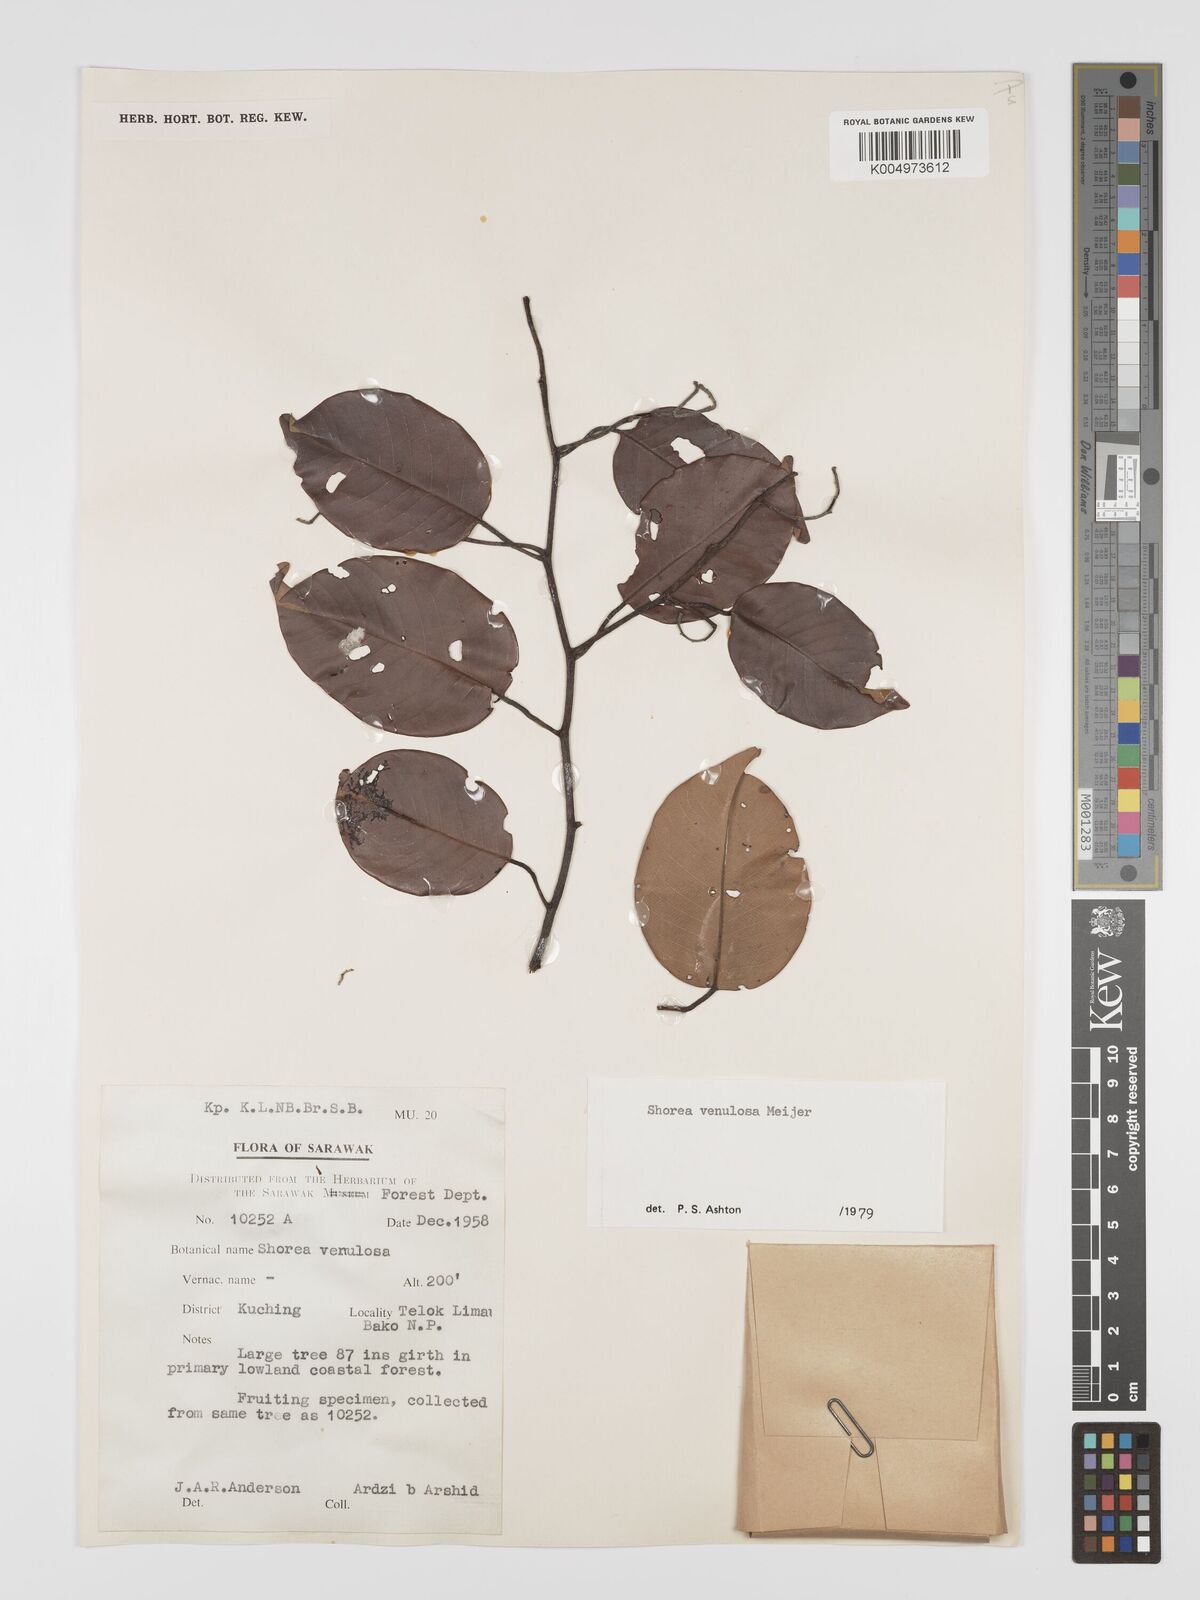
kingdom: Plantae
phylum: Tracheophyta
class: Magnoliopsida
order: Malvales
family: Dipterocarpaceae
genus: Shorea
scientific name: Shorea venulosa
